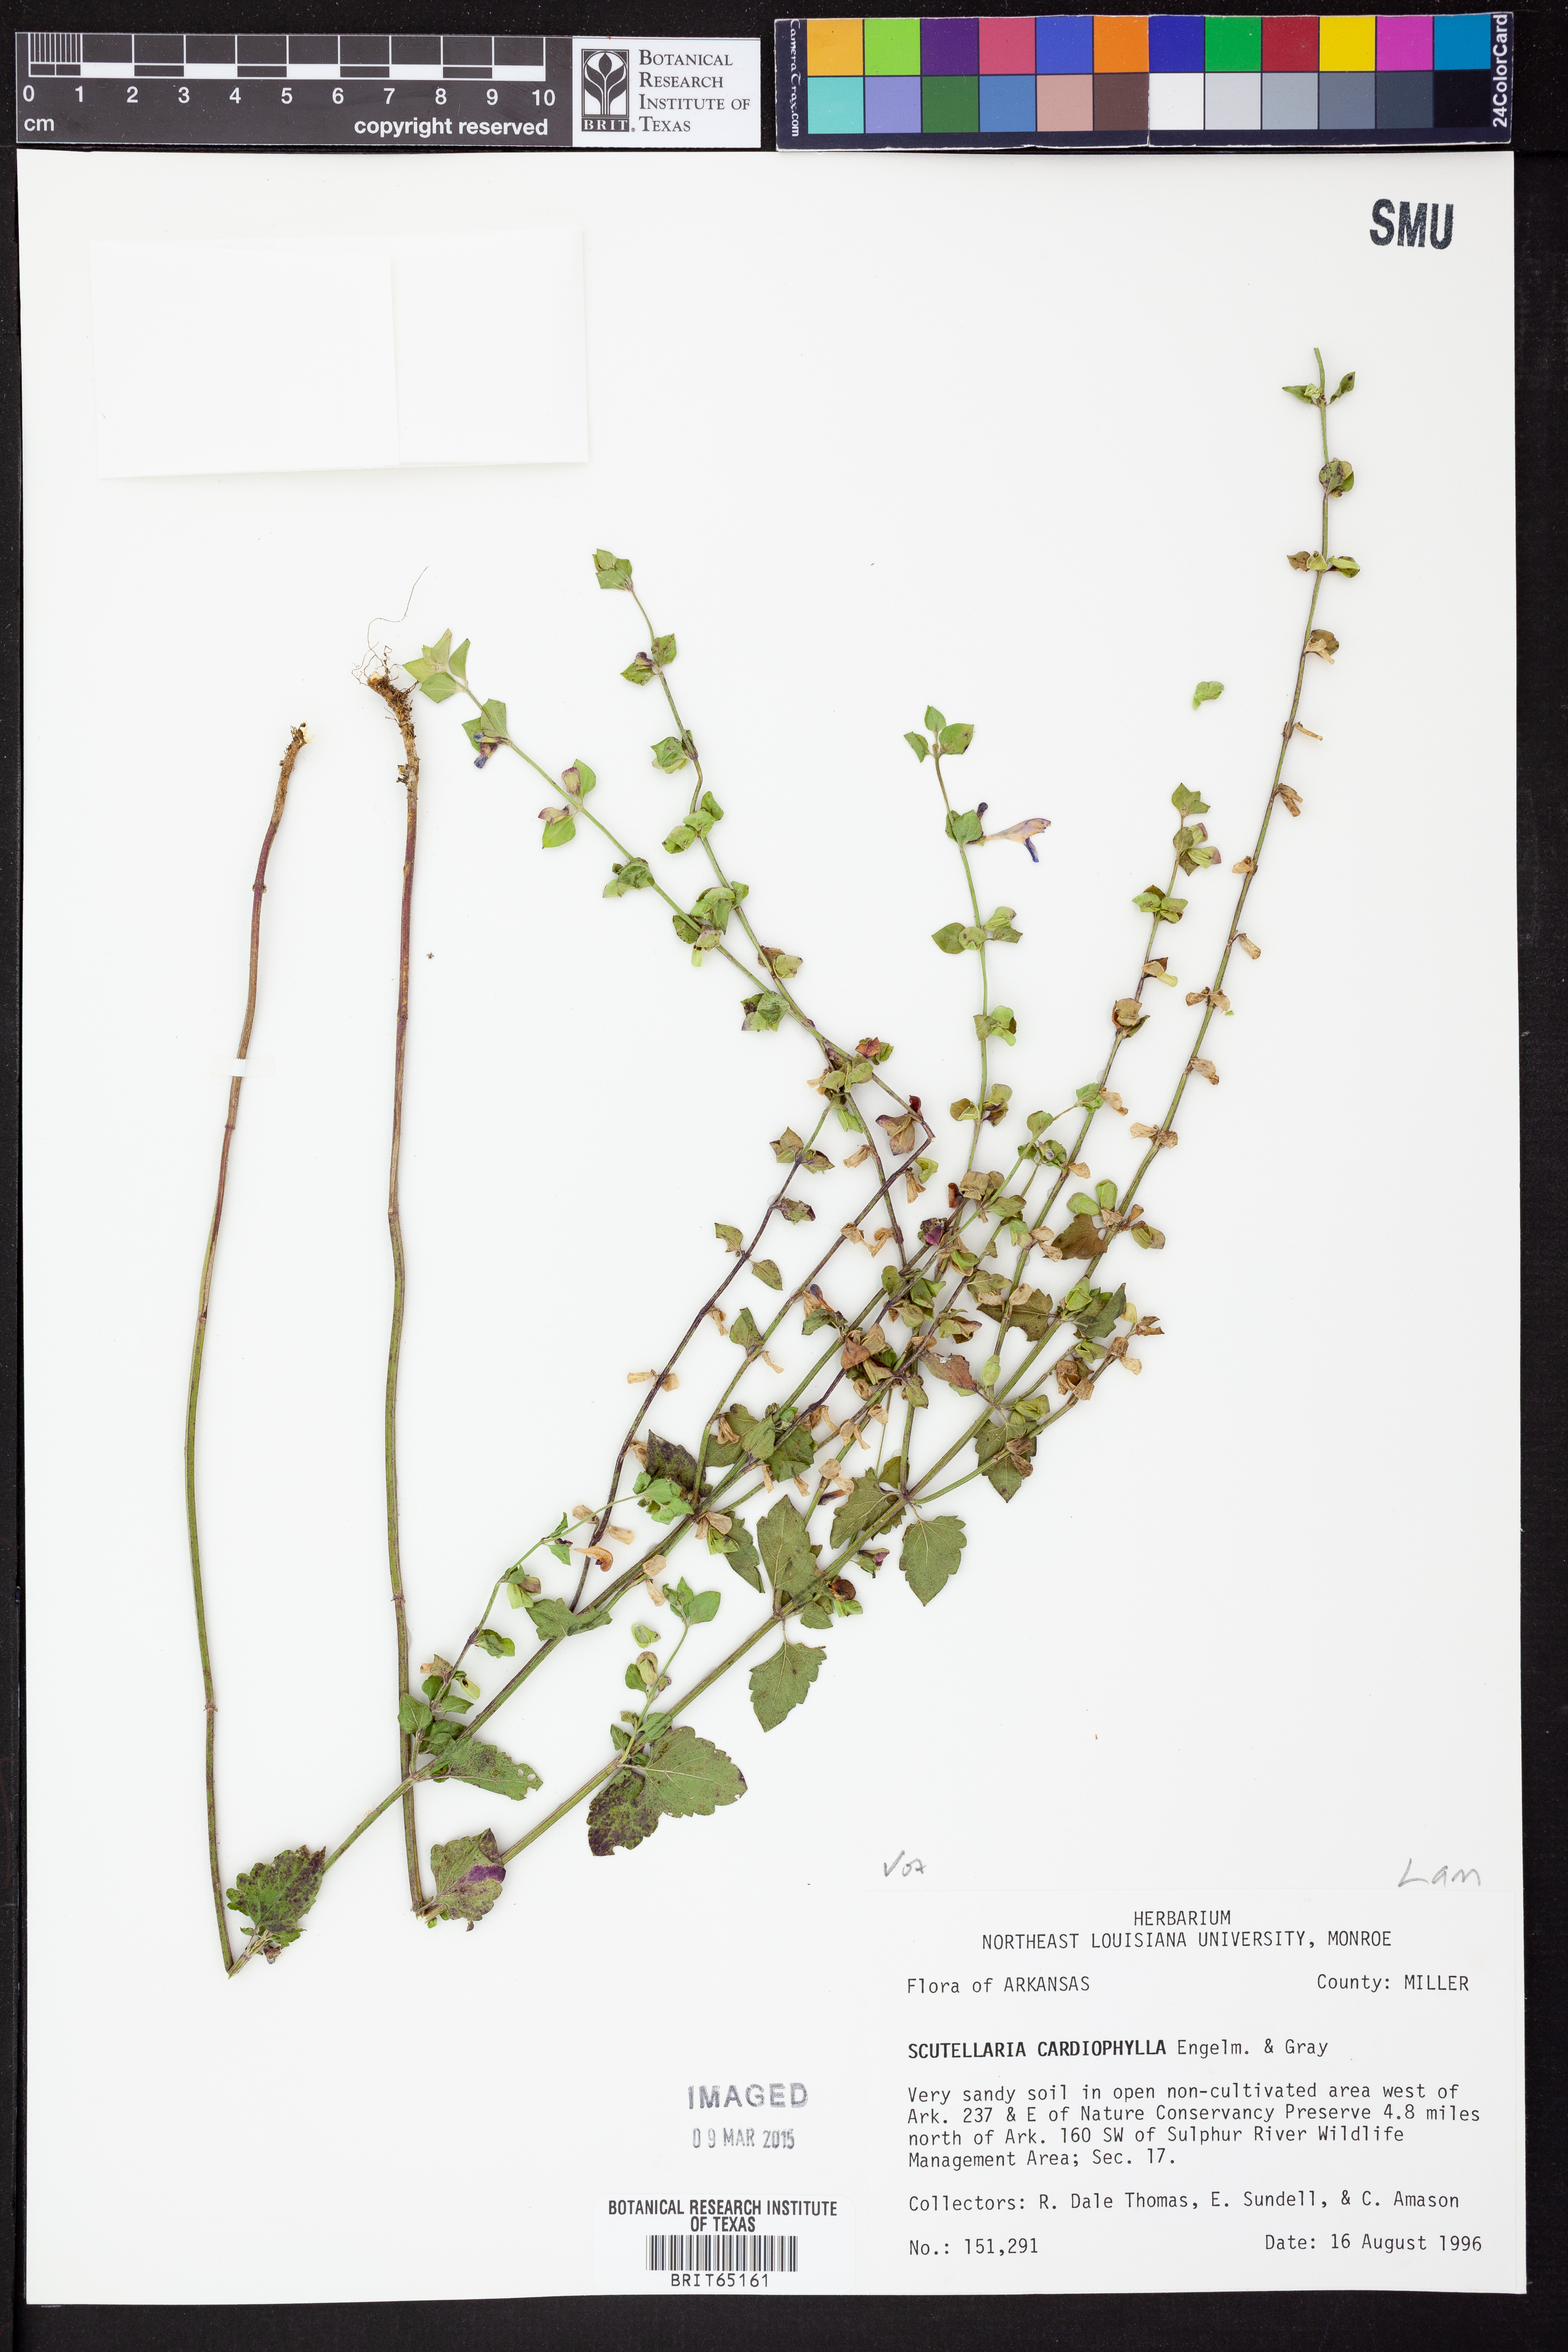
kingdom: Plantae
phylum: Tracheophyta
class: Magnoliopsida
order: Lamiales
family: Lamiaceae
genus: Scutellaria
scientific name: Scutellaria
